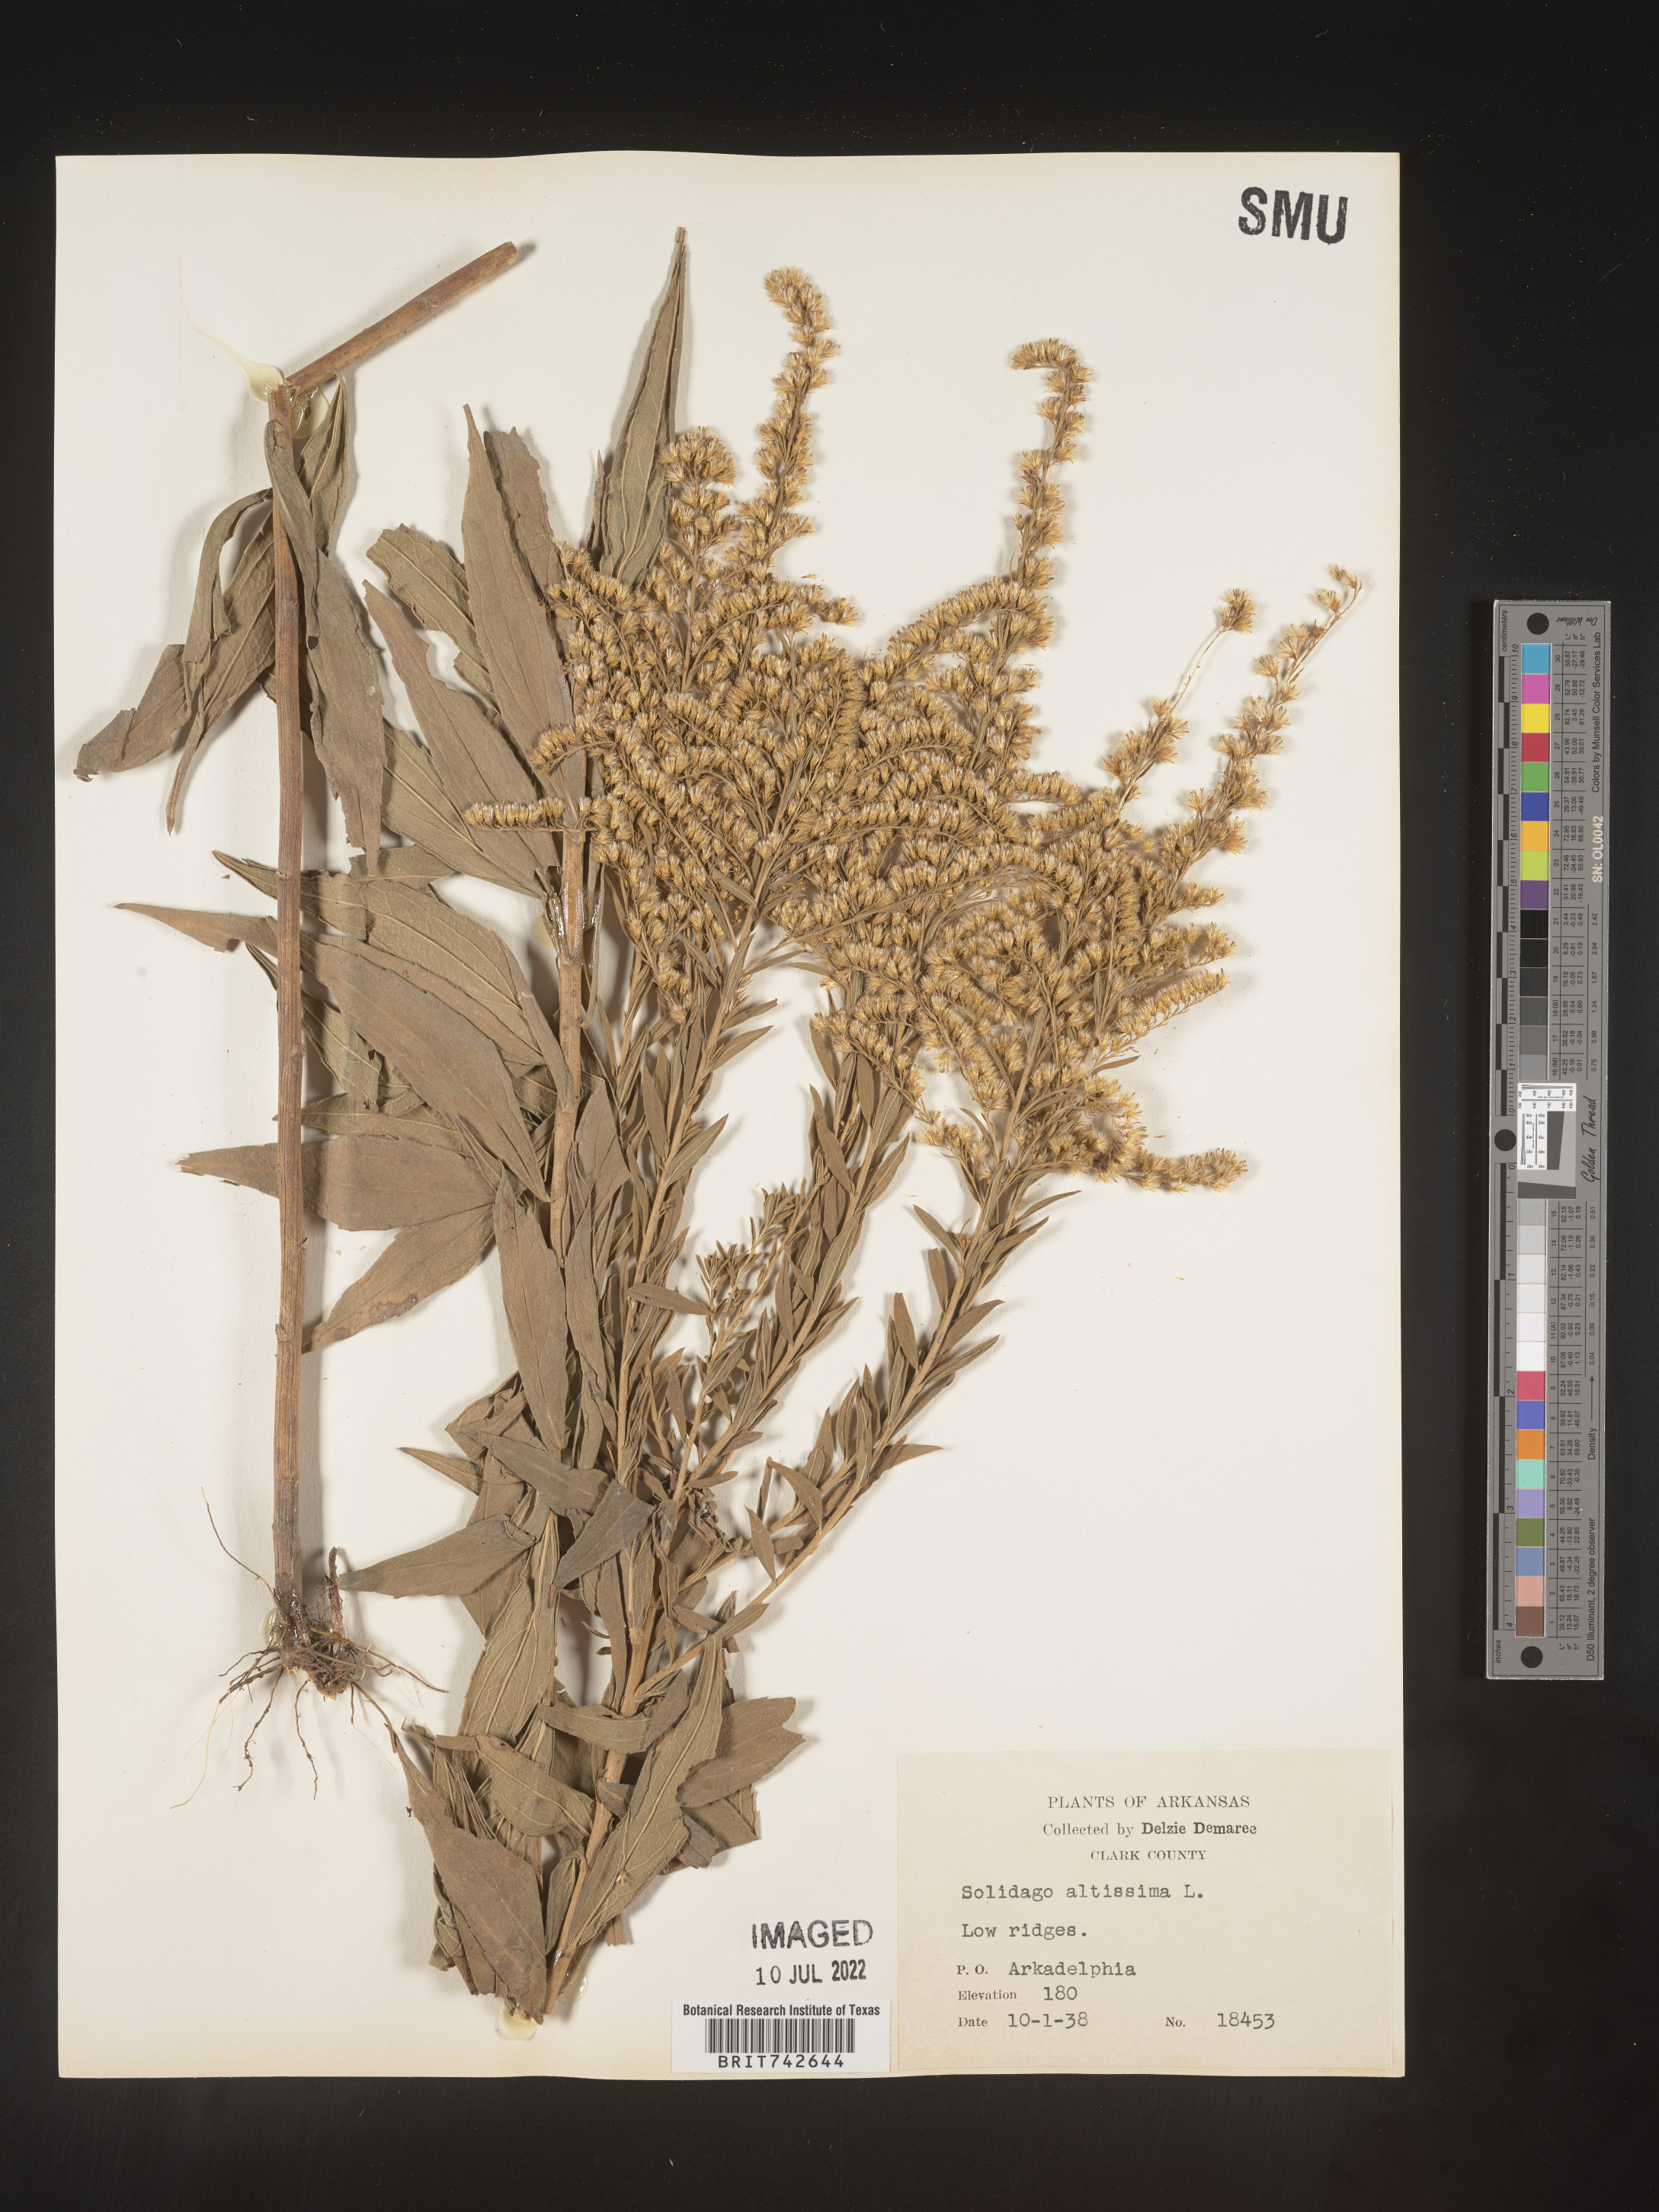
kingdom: Plantae
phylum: Tracheophyta
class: Magnoliopsida
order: Asterales
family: Asteraceae
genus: Solidago
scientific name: Solidago altissima
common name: Late goldenrod
